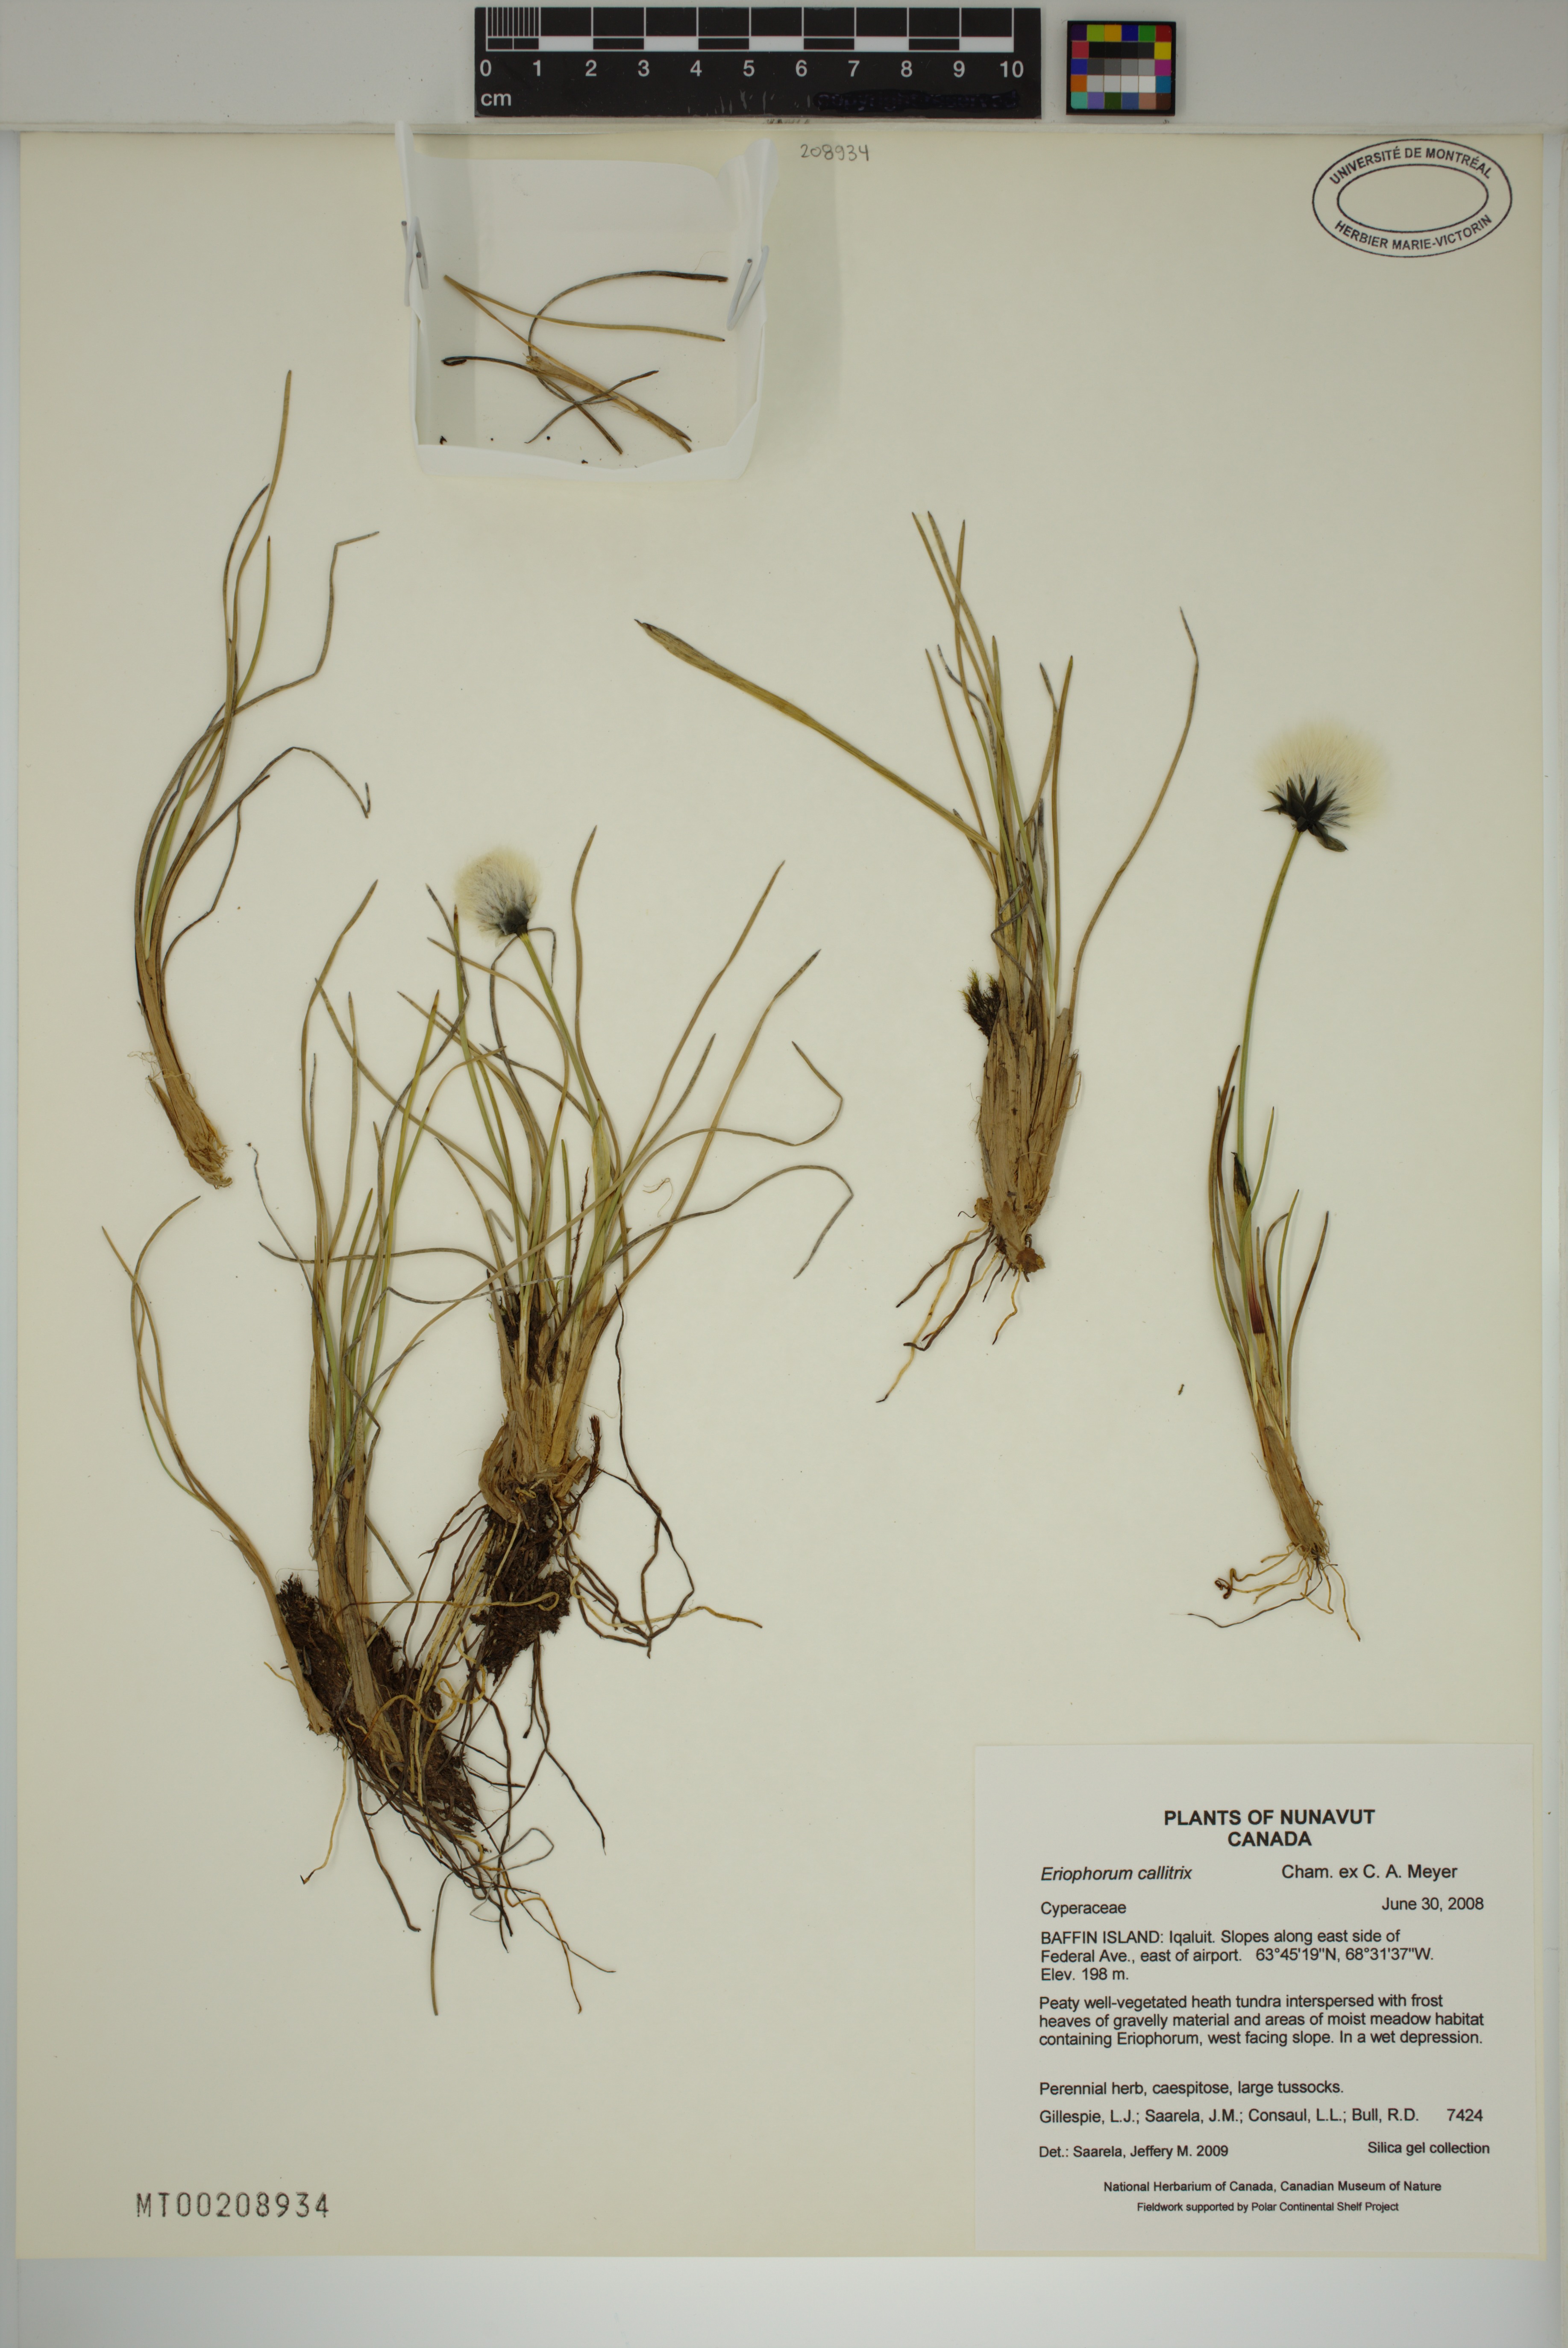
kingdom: Plantae
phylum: Tracheophyta
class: Liliopsida
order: Poales
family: Cyperaceae
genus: Eriophorum
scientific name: Eriophorum callitrix
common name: Arctic cottongrass
